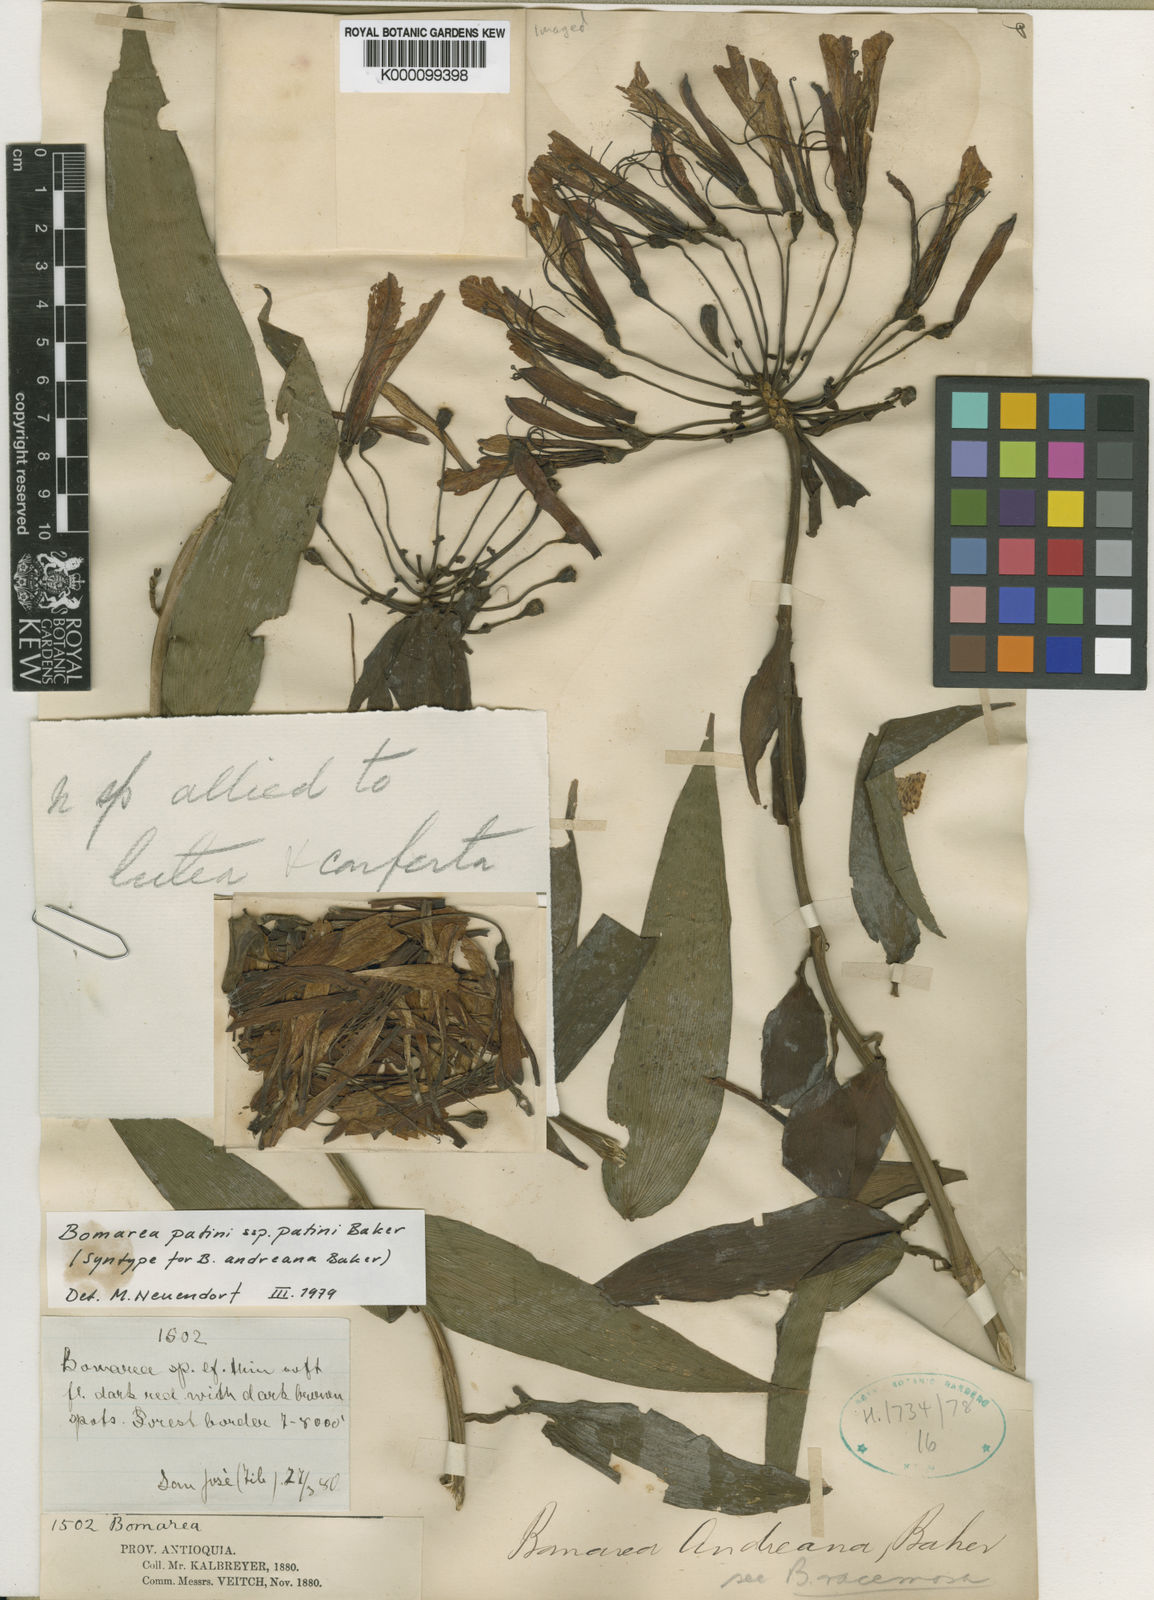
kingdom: Plantae
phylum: Tracheophyta
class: Liliopsida
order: Liliales
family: Alstroemeriaceae
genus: Bomarea
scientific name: Bomarea andreana
